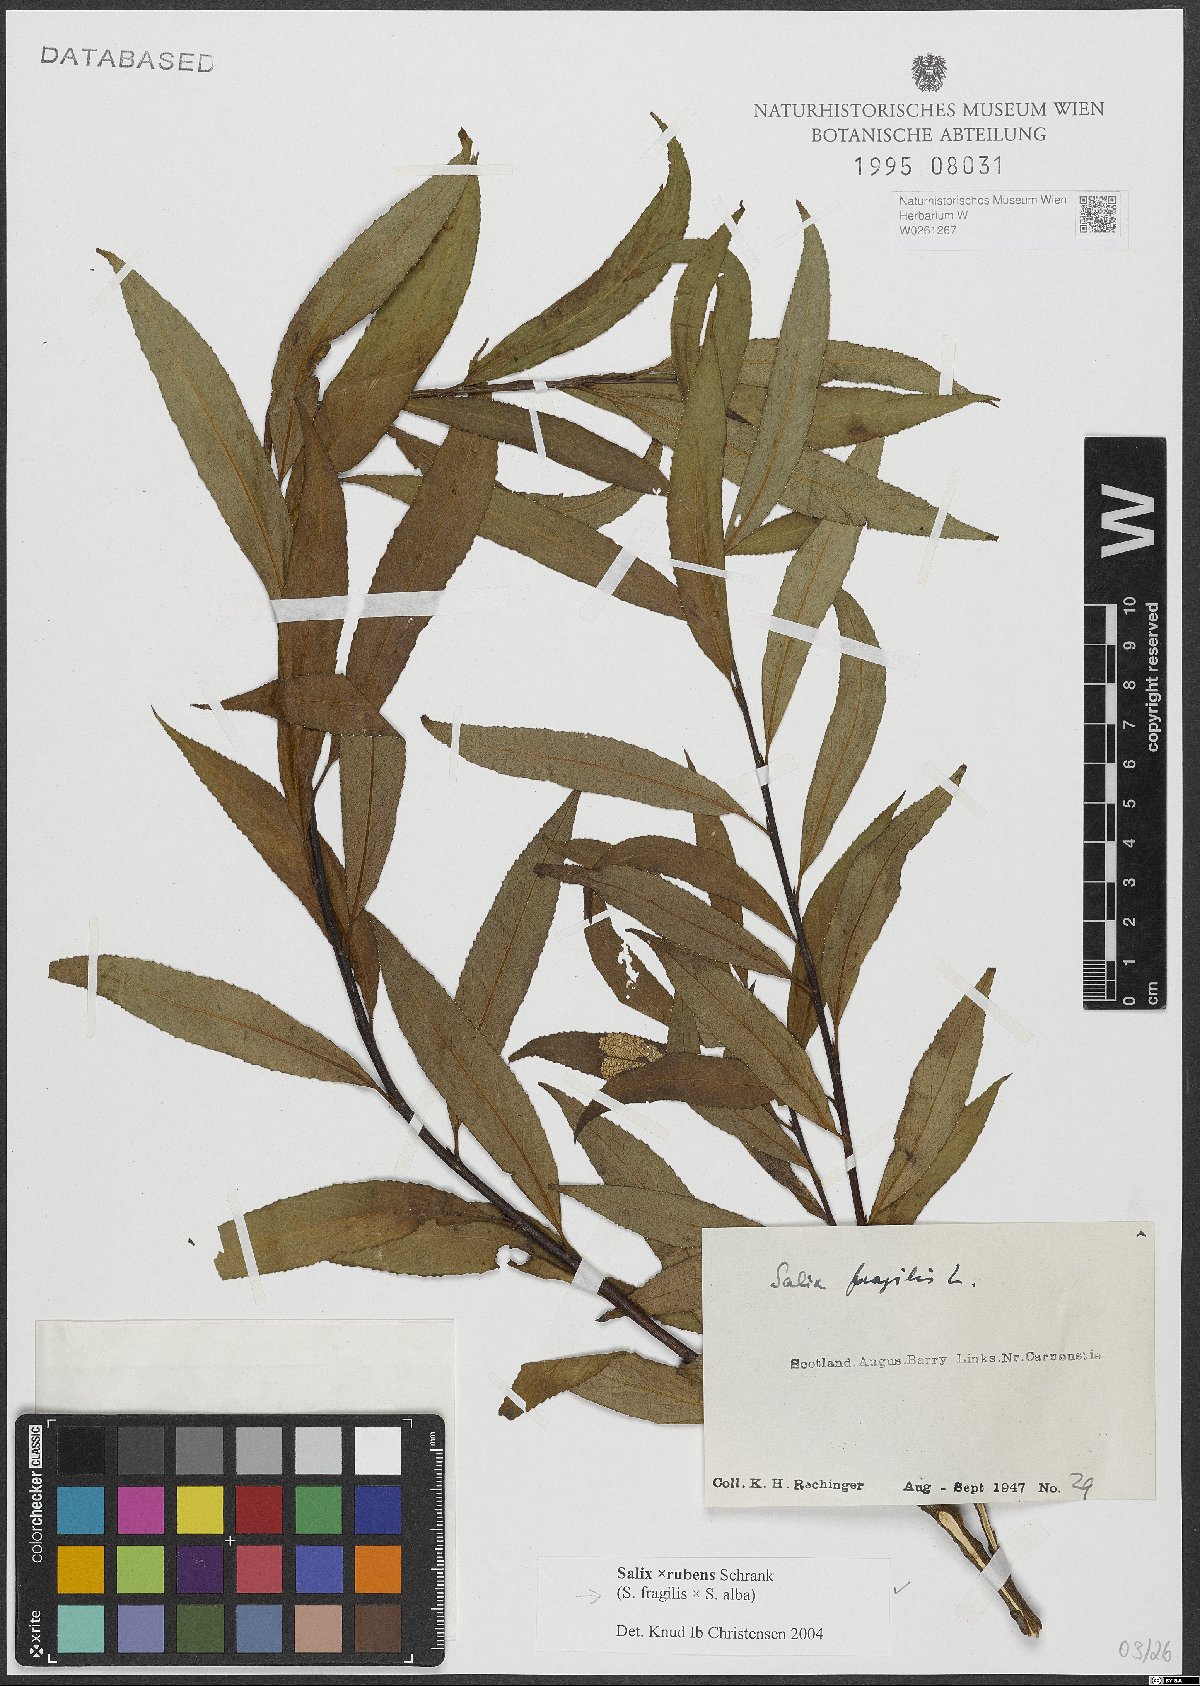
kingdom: Plantae
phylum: Tracheophyta
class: Magnoliopsida
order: Malpighiales
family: Salicaceae
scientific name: Salicaceae
